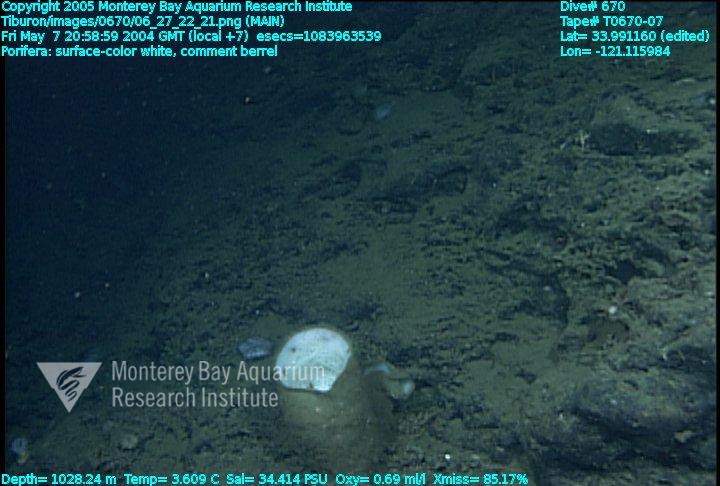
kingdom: Animalia
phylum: Porifera
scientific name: Porifera
